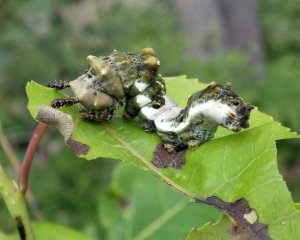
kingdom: Animalia
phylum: Arthropoda
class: Insecta
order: Lepidoptera
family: Nymphalidae
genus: Limenitis
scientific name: Limenitis arthemis
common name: Red-spotted Admiral
